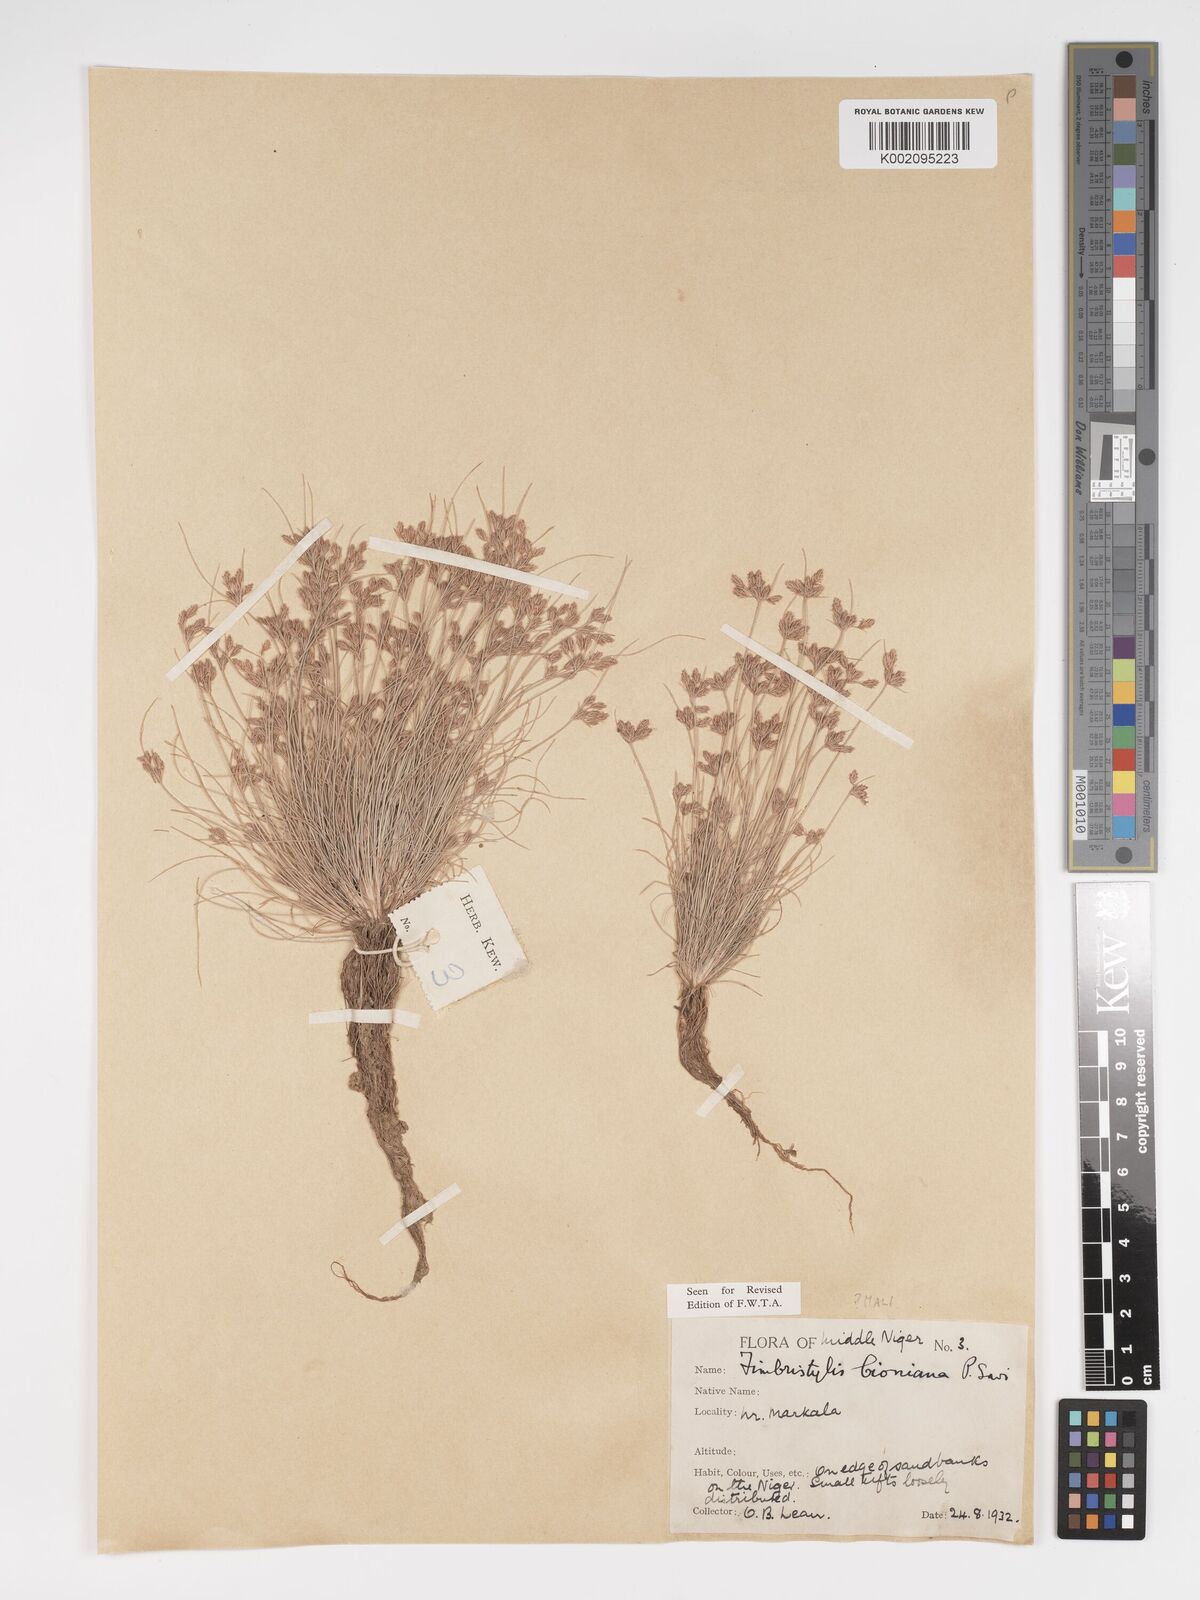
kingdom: Plantae
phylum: Tracheophyta
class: Liliopsida
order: Poales
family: Cyperaceae
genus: Bulbostylis
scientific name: Bulbostylis cioniana
